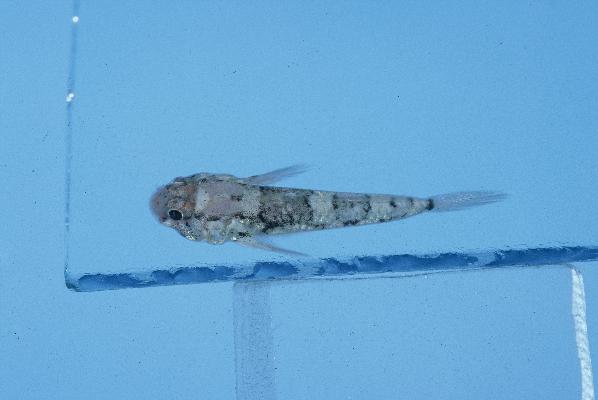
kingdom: Animalia
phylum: Chordata
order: Perciformes
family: Gobiidae
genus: Cabillus
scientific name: Cabillus nigromarginatus
